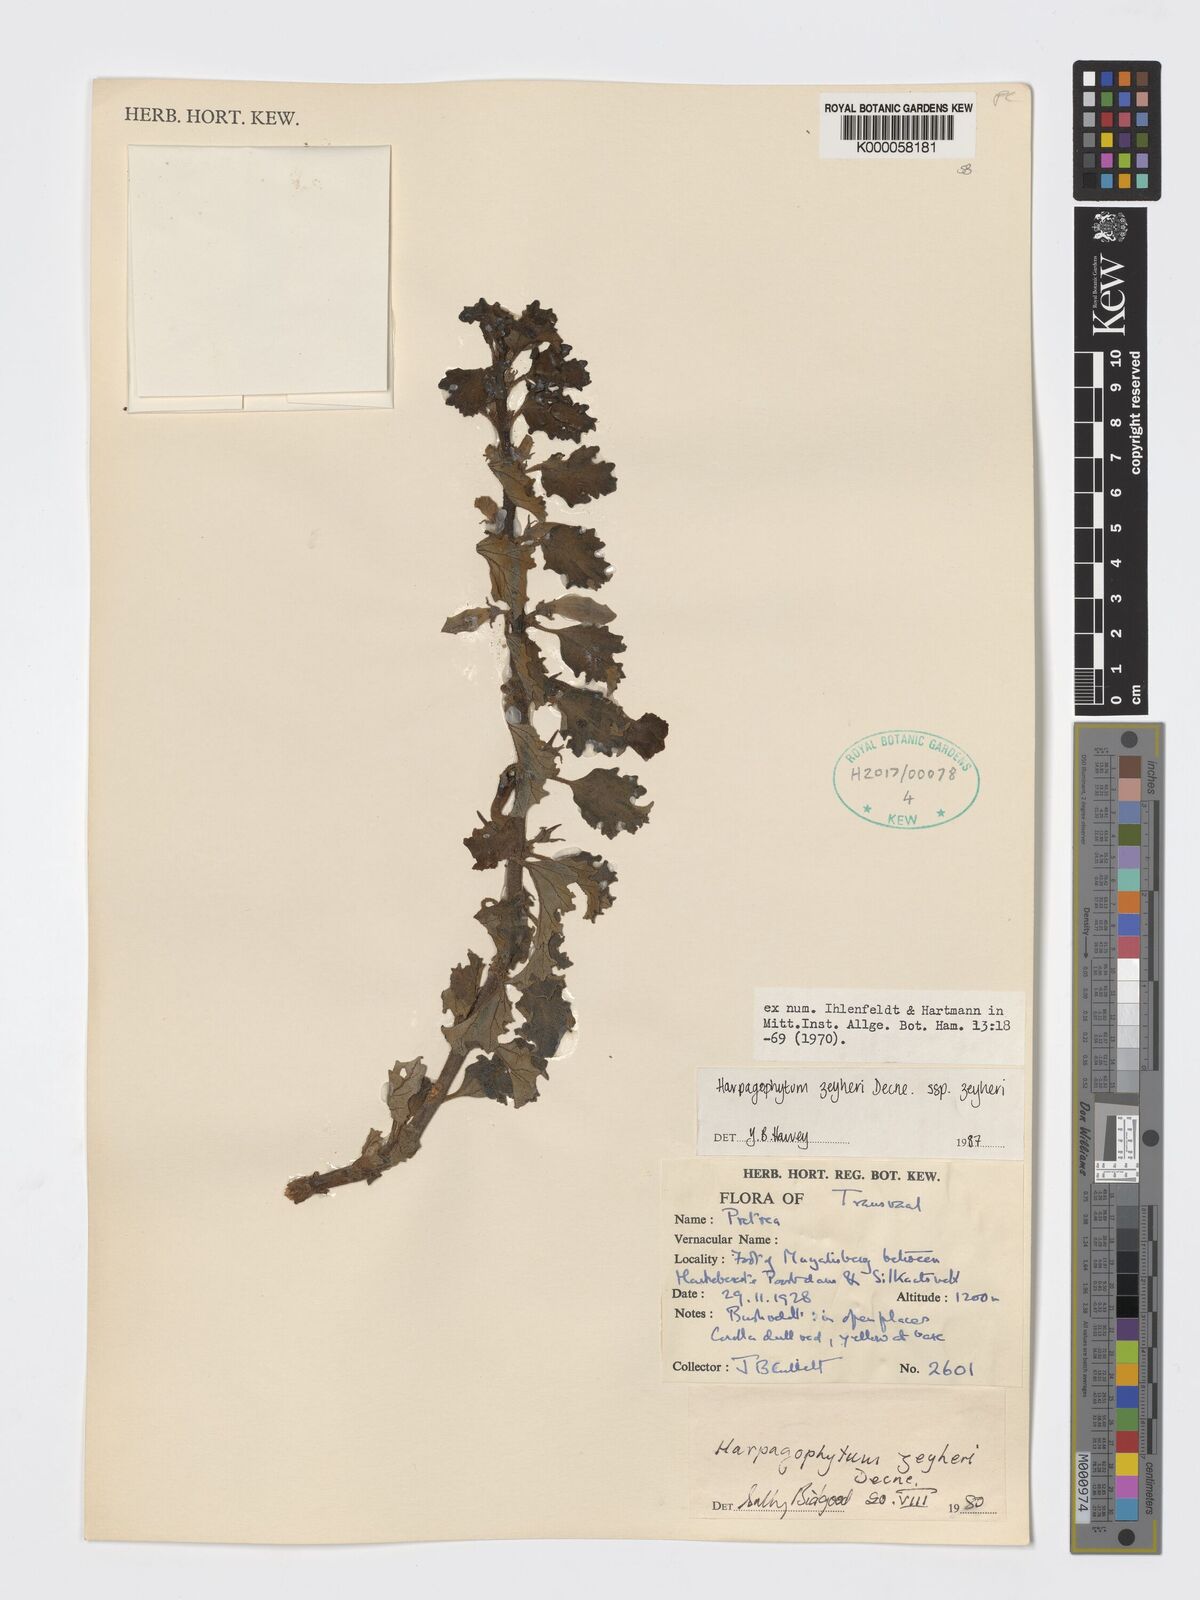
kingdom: Plantae
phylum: Tracheophyta
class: Magnoliopsida
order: Lamiales
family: Pedaliaceae
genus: Harpagophytum
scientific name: Harpagophytum zeyheri
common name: Grappleplant
